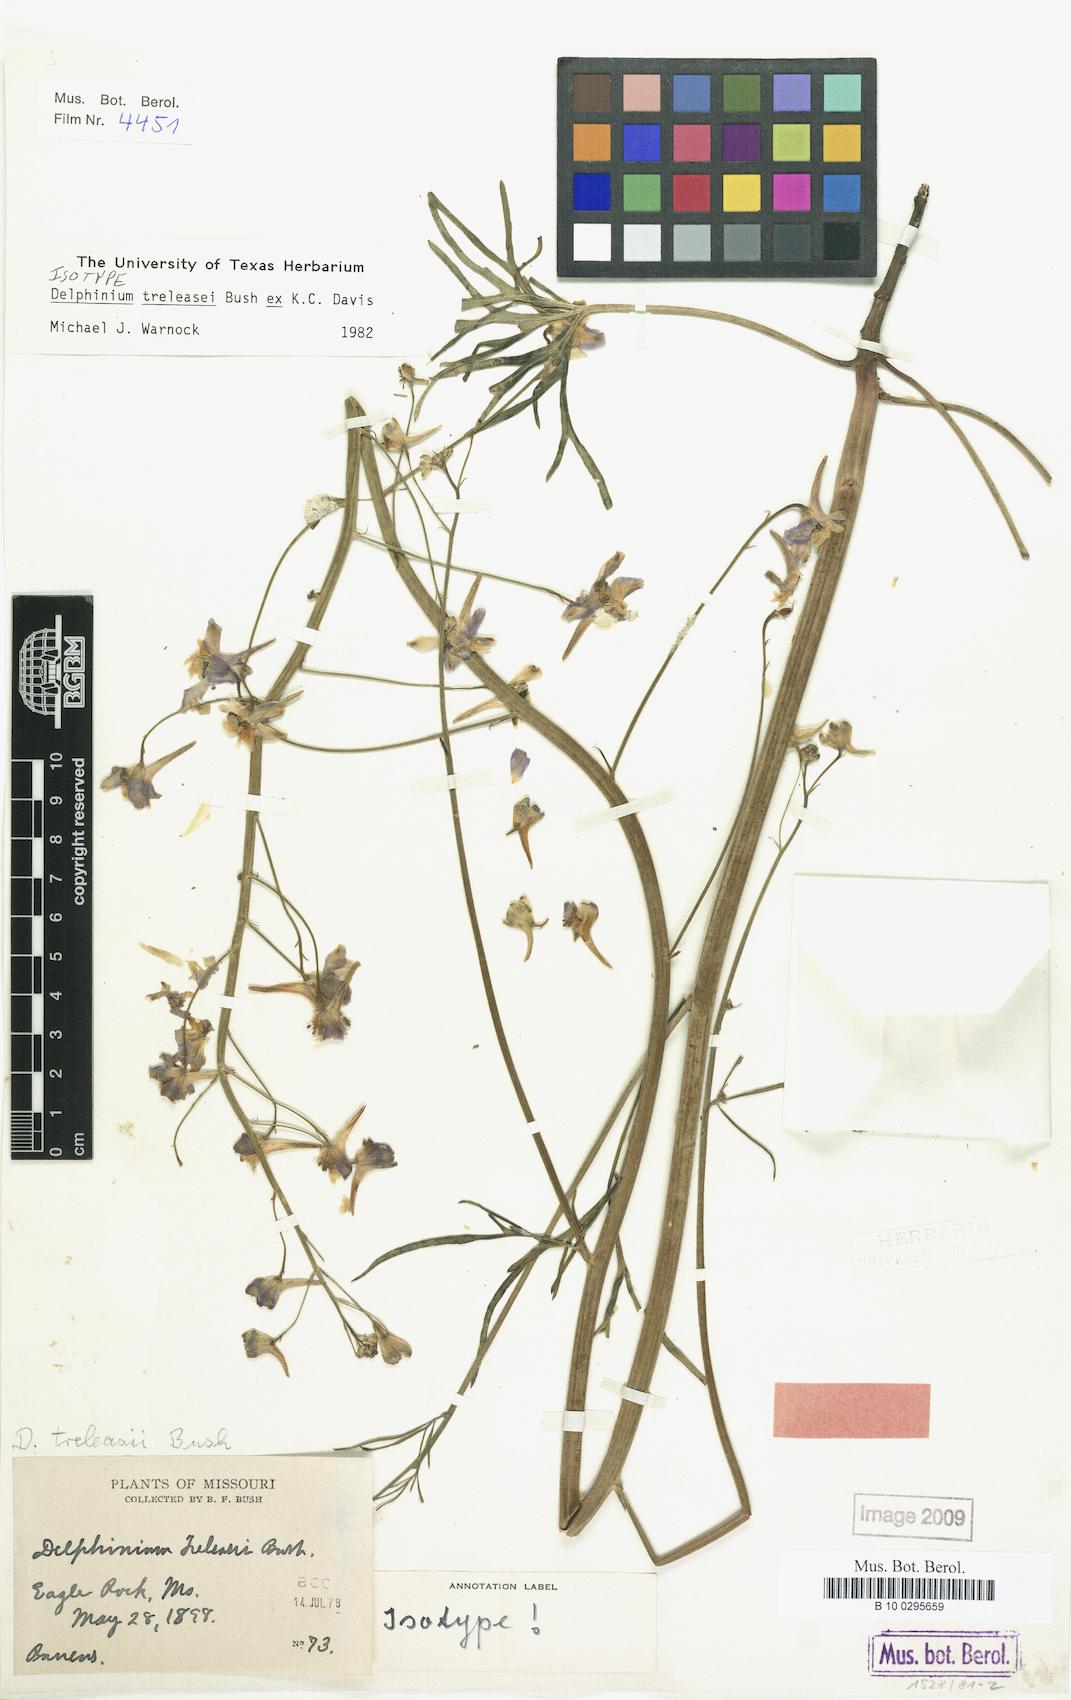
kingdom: Plantae
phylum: Tracheophyta
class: Magnoliopsida
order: Ranunculales
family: Ranunculaceae
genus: Delphinium
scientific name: Delphinium treleasei
